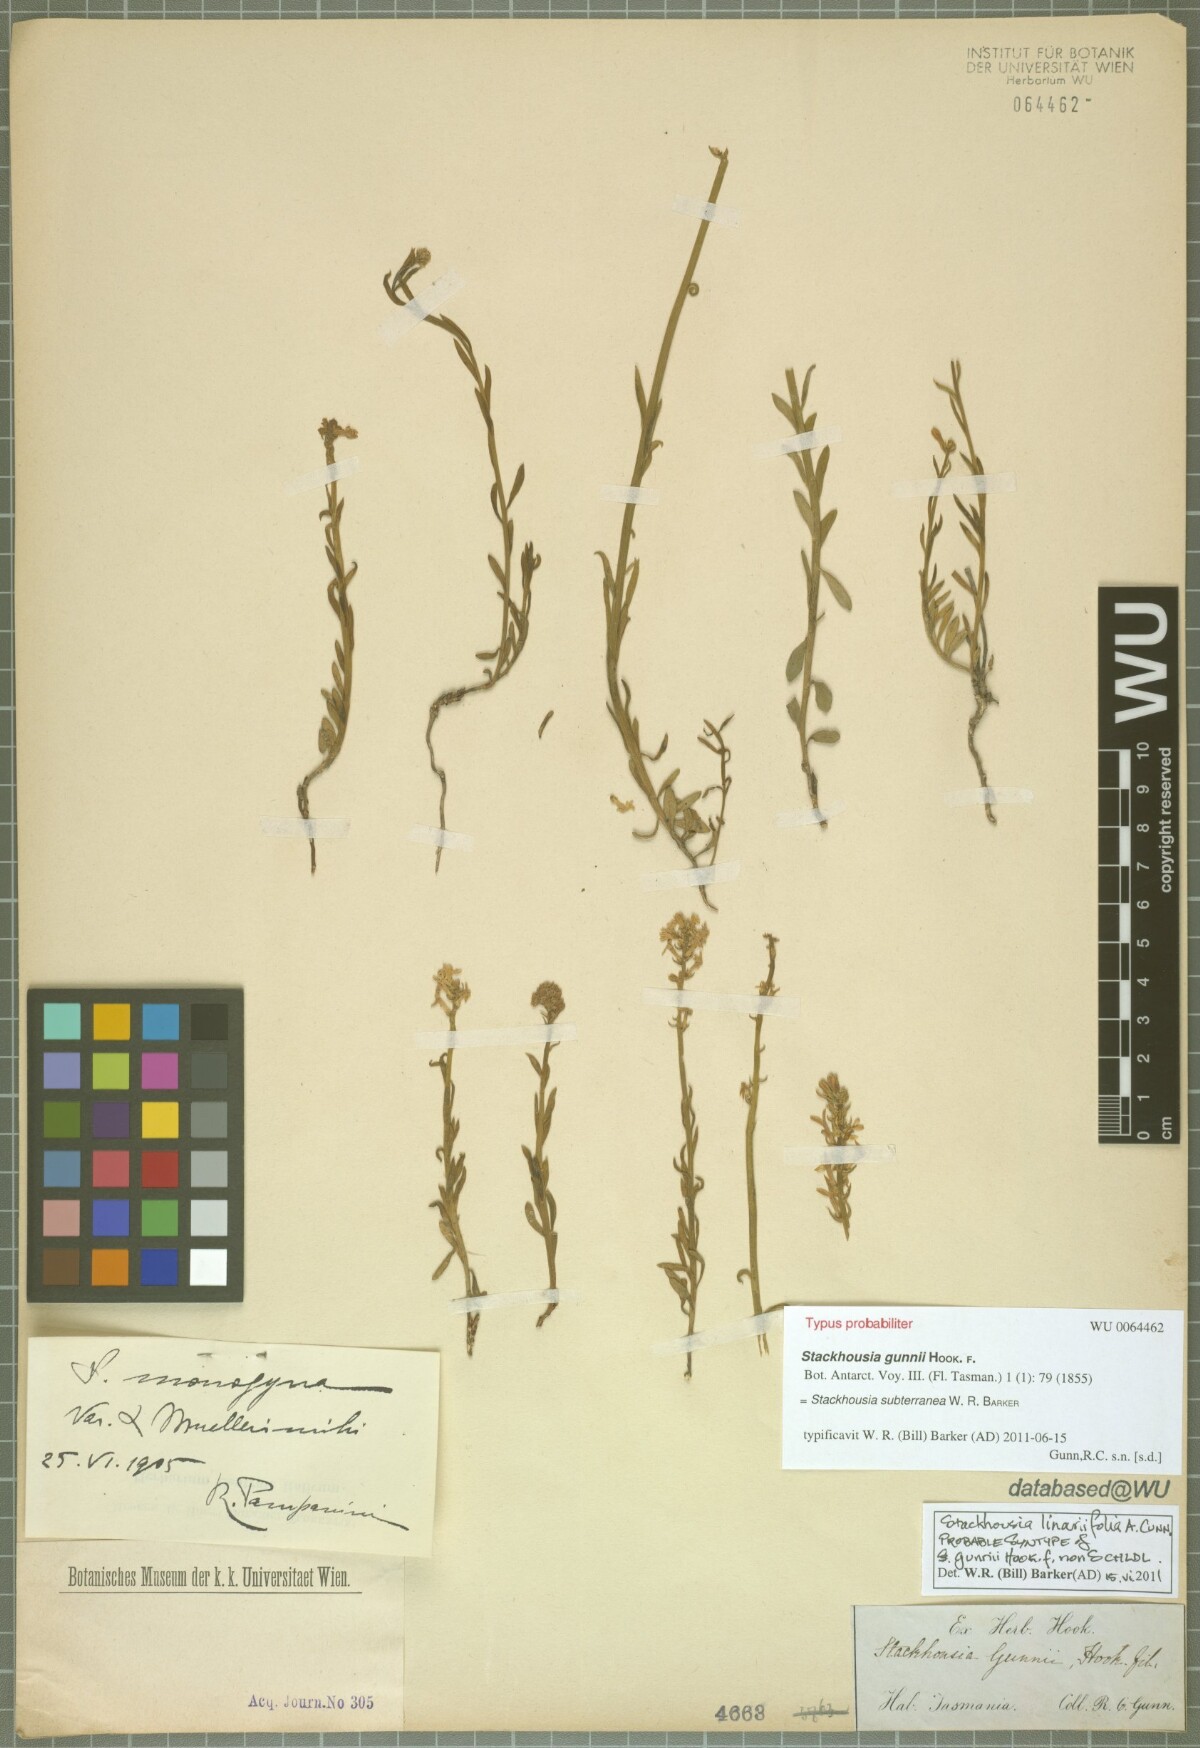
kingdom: Plantae
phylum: Tracheophyta
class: Magnoliopsida
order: Celastrales
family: Celastraceae
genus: Stackhousia
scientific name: Stackhousia monogyna
